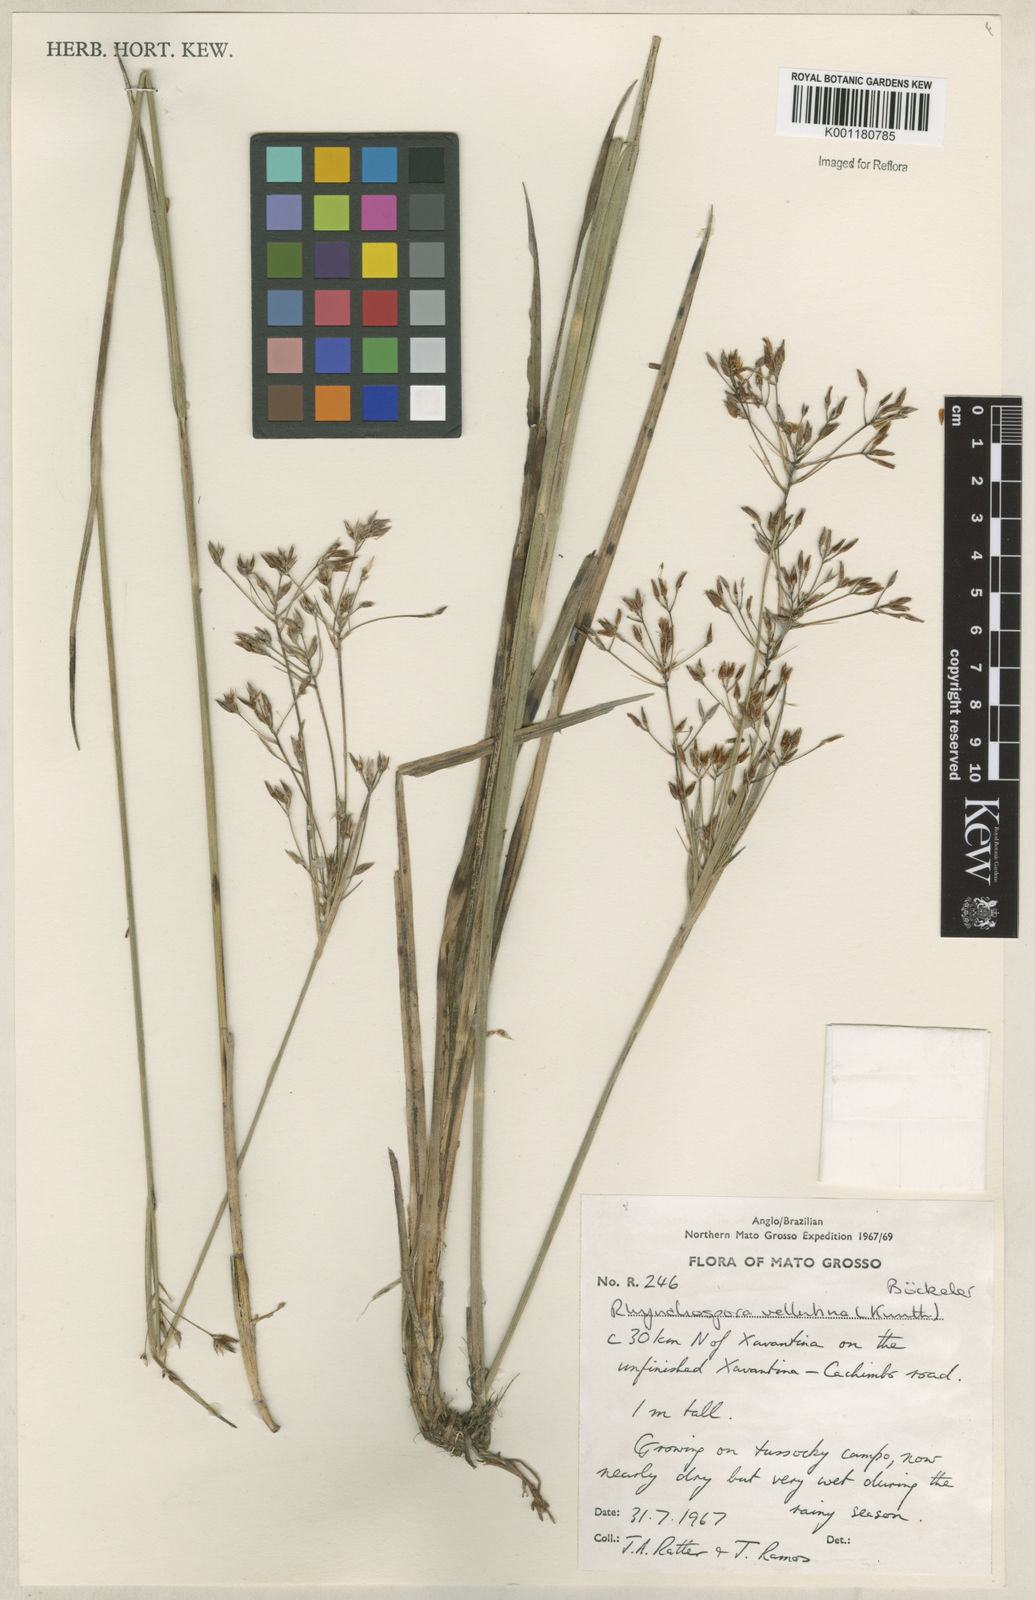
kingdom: Plantae
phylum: Tracheophyta
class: Liliopsida
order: Poales
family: Cyperaceae
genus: Rhynchospora
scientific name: Rhynchospora velutina
